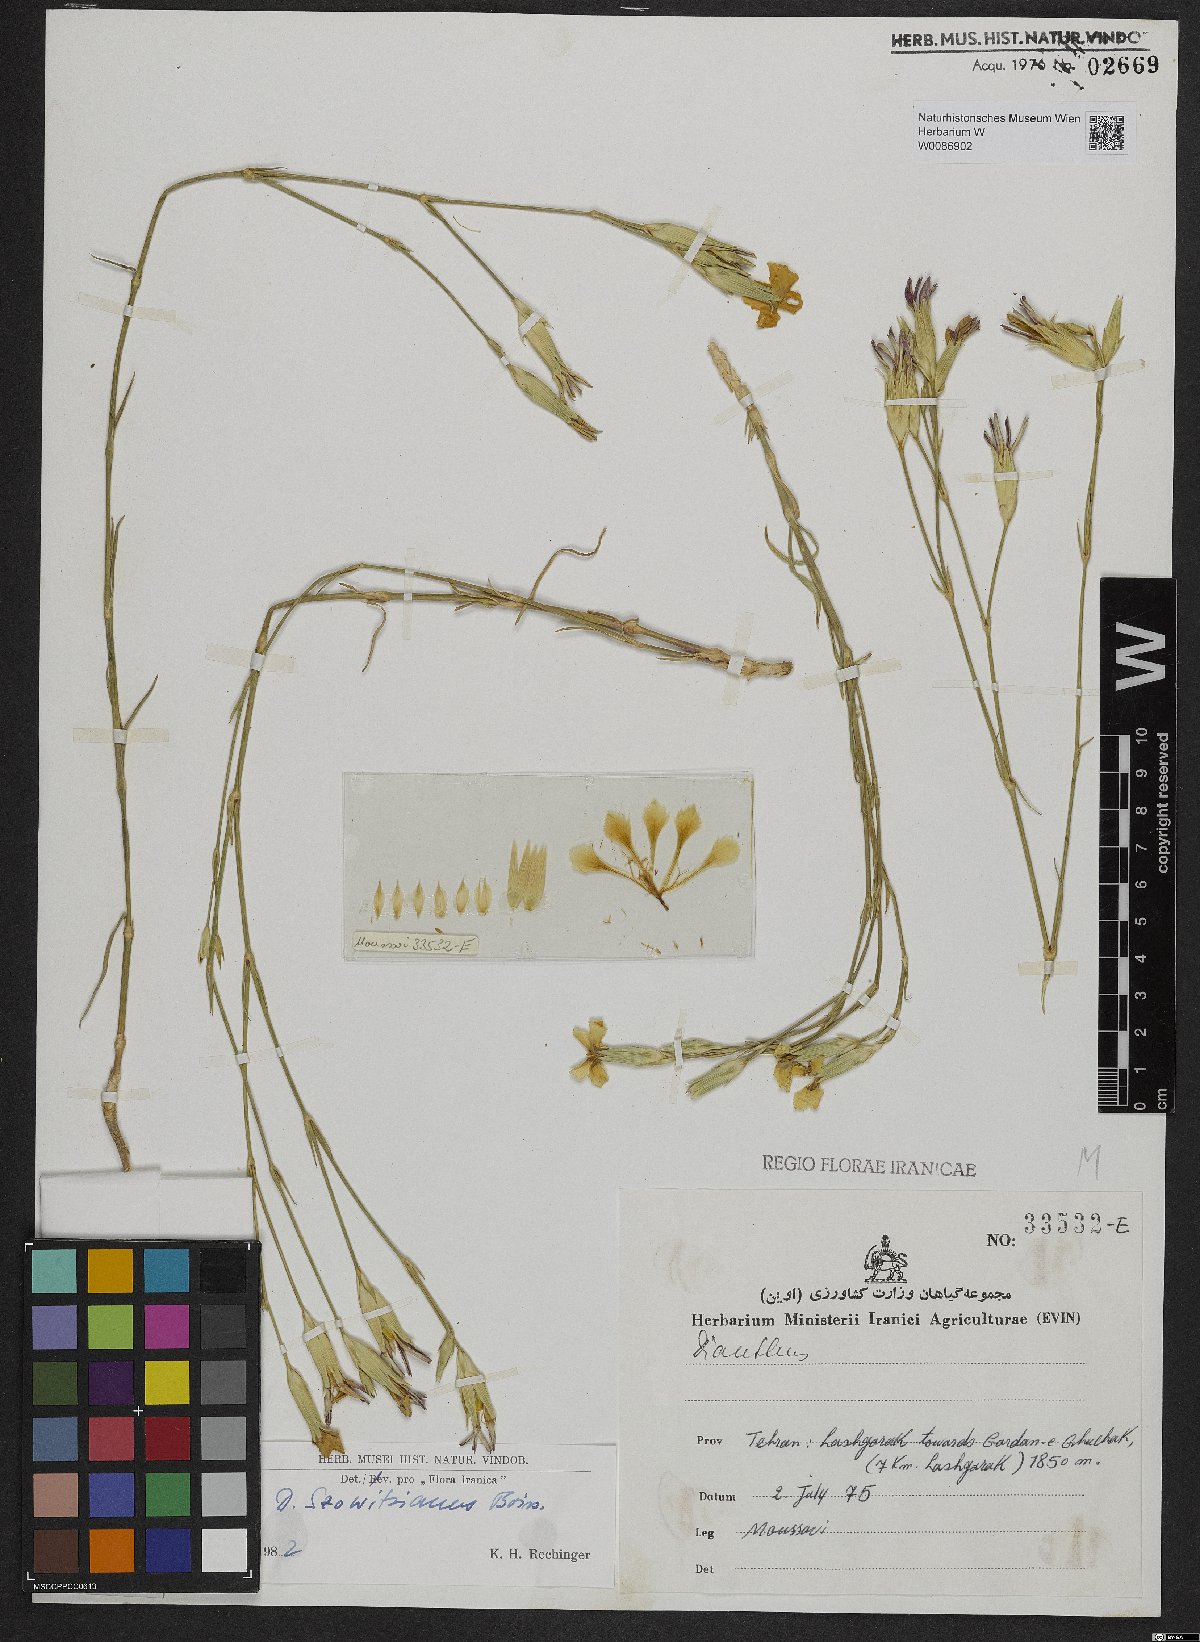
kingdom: Plantae
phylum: Tracheophyta
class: Magnoliopsida
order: Caryophyllales
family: Caryophyllaceae
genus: Dianthus
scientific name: Dianthus szowitsianus
